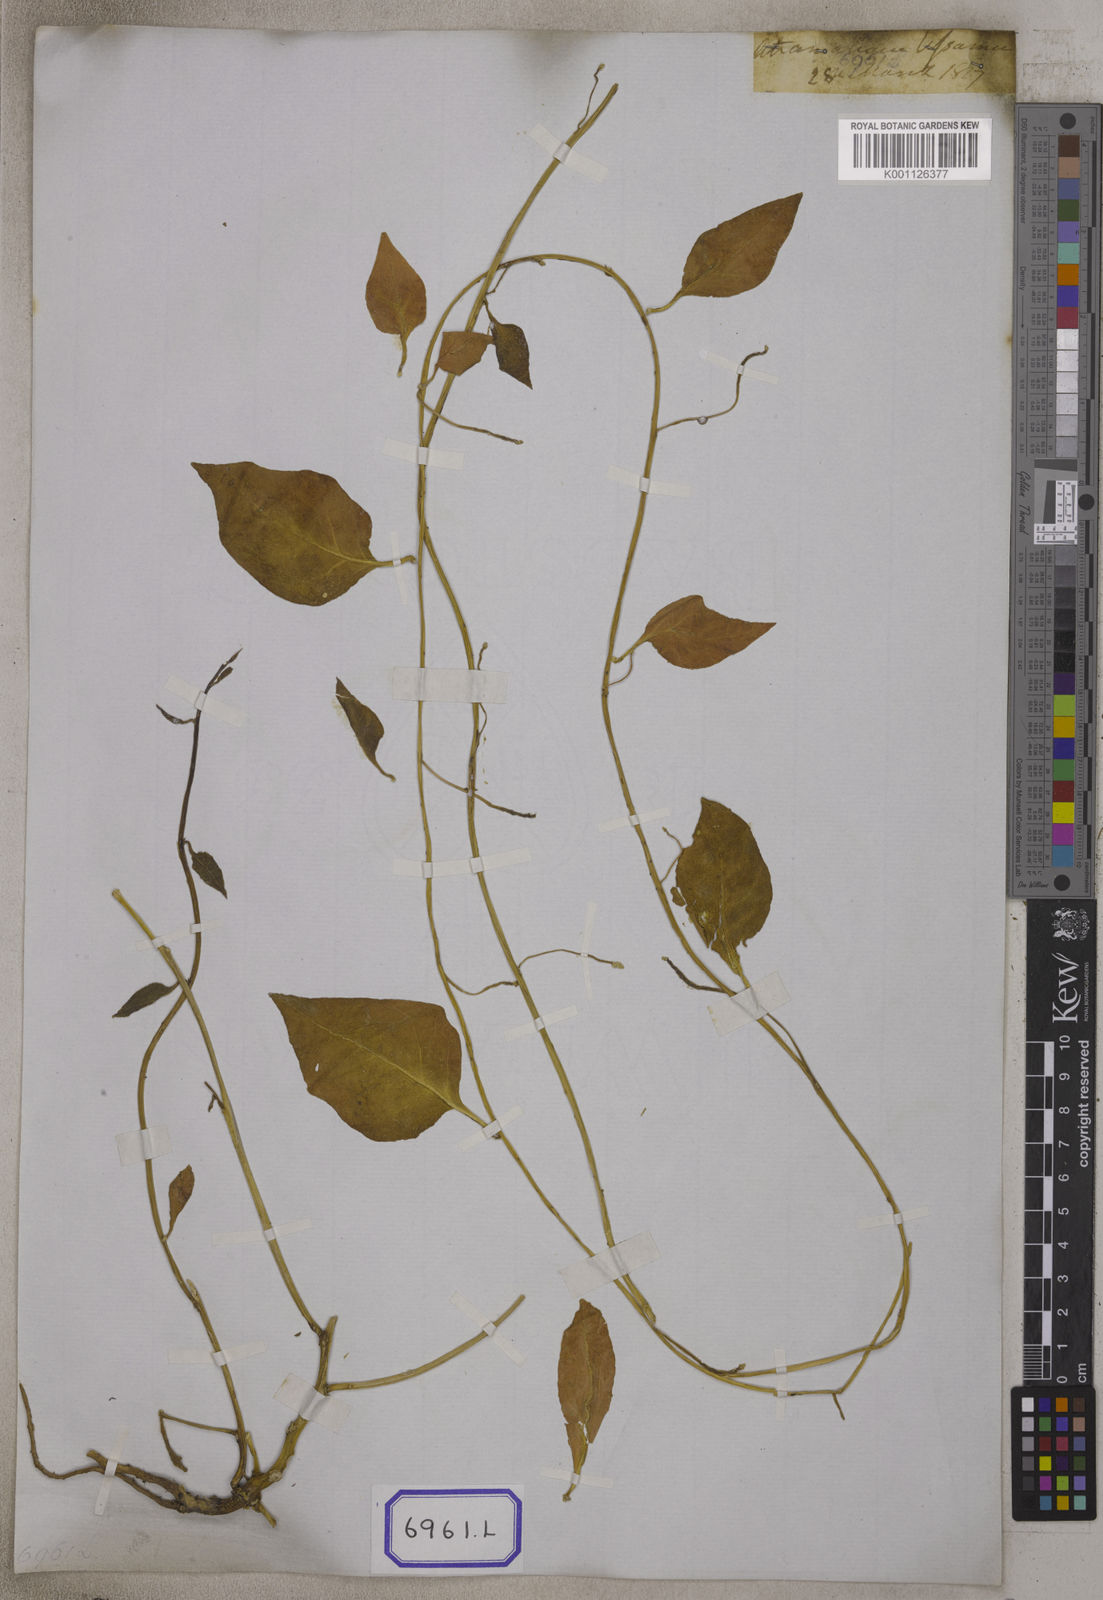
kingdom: Plantae
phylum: Tracheophyta
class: Magnoliopsida
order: Caryophyllales
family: Basellaceae
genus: Basella
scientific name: Basella alba
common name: Indian spinach
